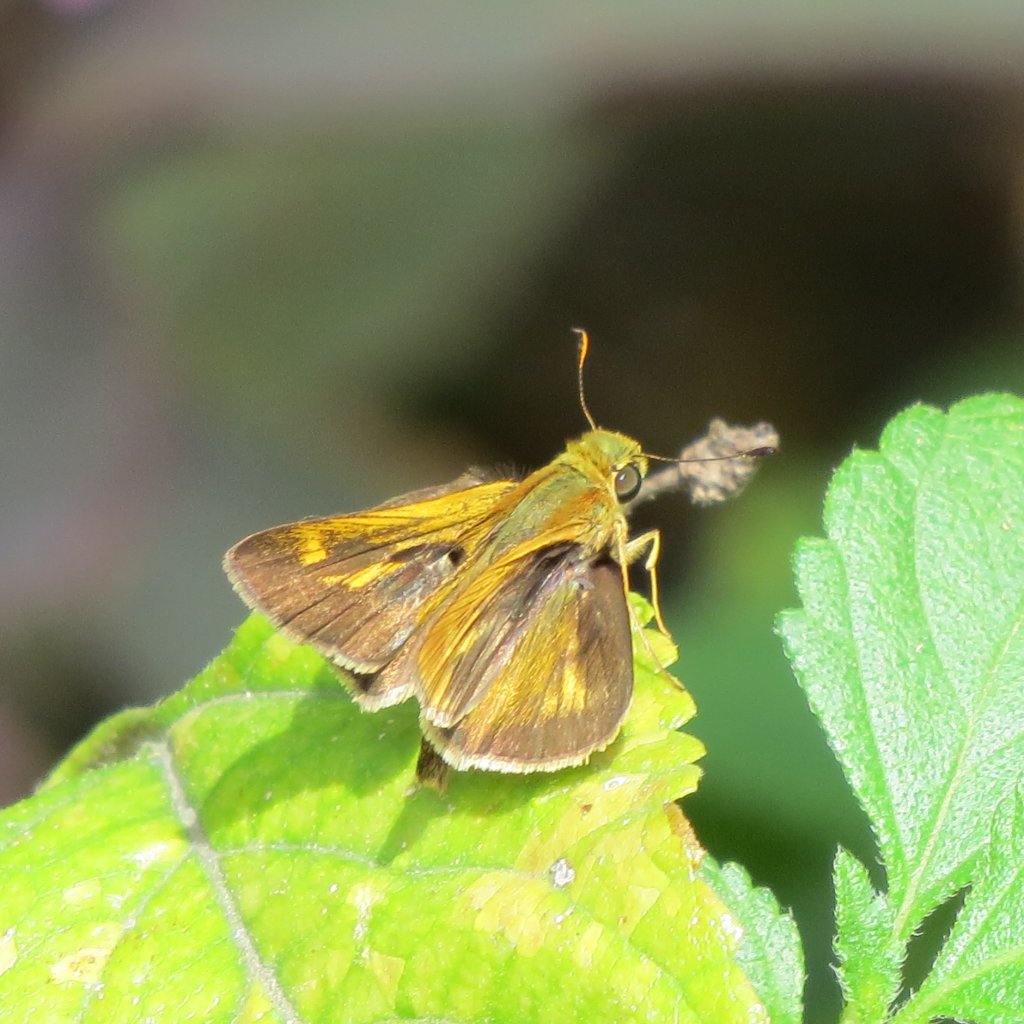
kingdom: Animalia
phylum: Arthropoda
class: Insecta
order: Lepidoptera
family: Hesperiidae
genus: Hylephila
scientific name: Hylephila phyleus
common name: Fiery Skipper
